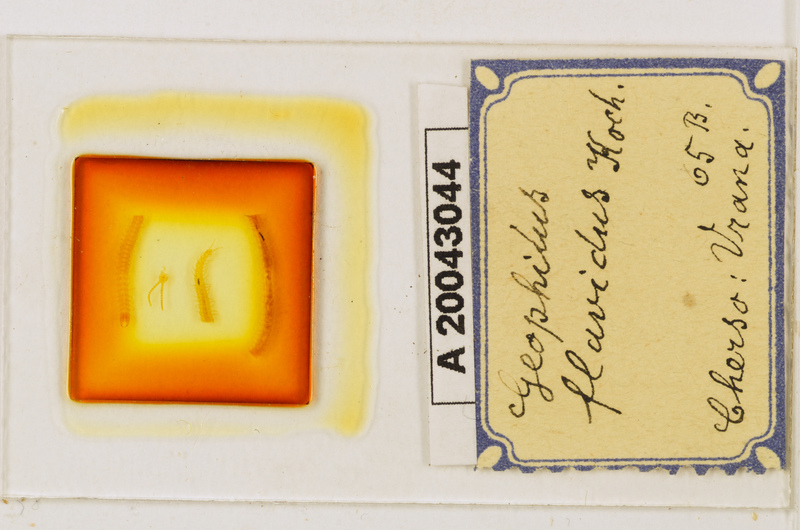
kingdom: Animalia
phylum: Arthropoda
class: Chilopoda
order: Geophilomorpha
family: Geophilidae
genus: Clinopodes
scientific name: Clinopodes flavidus
